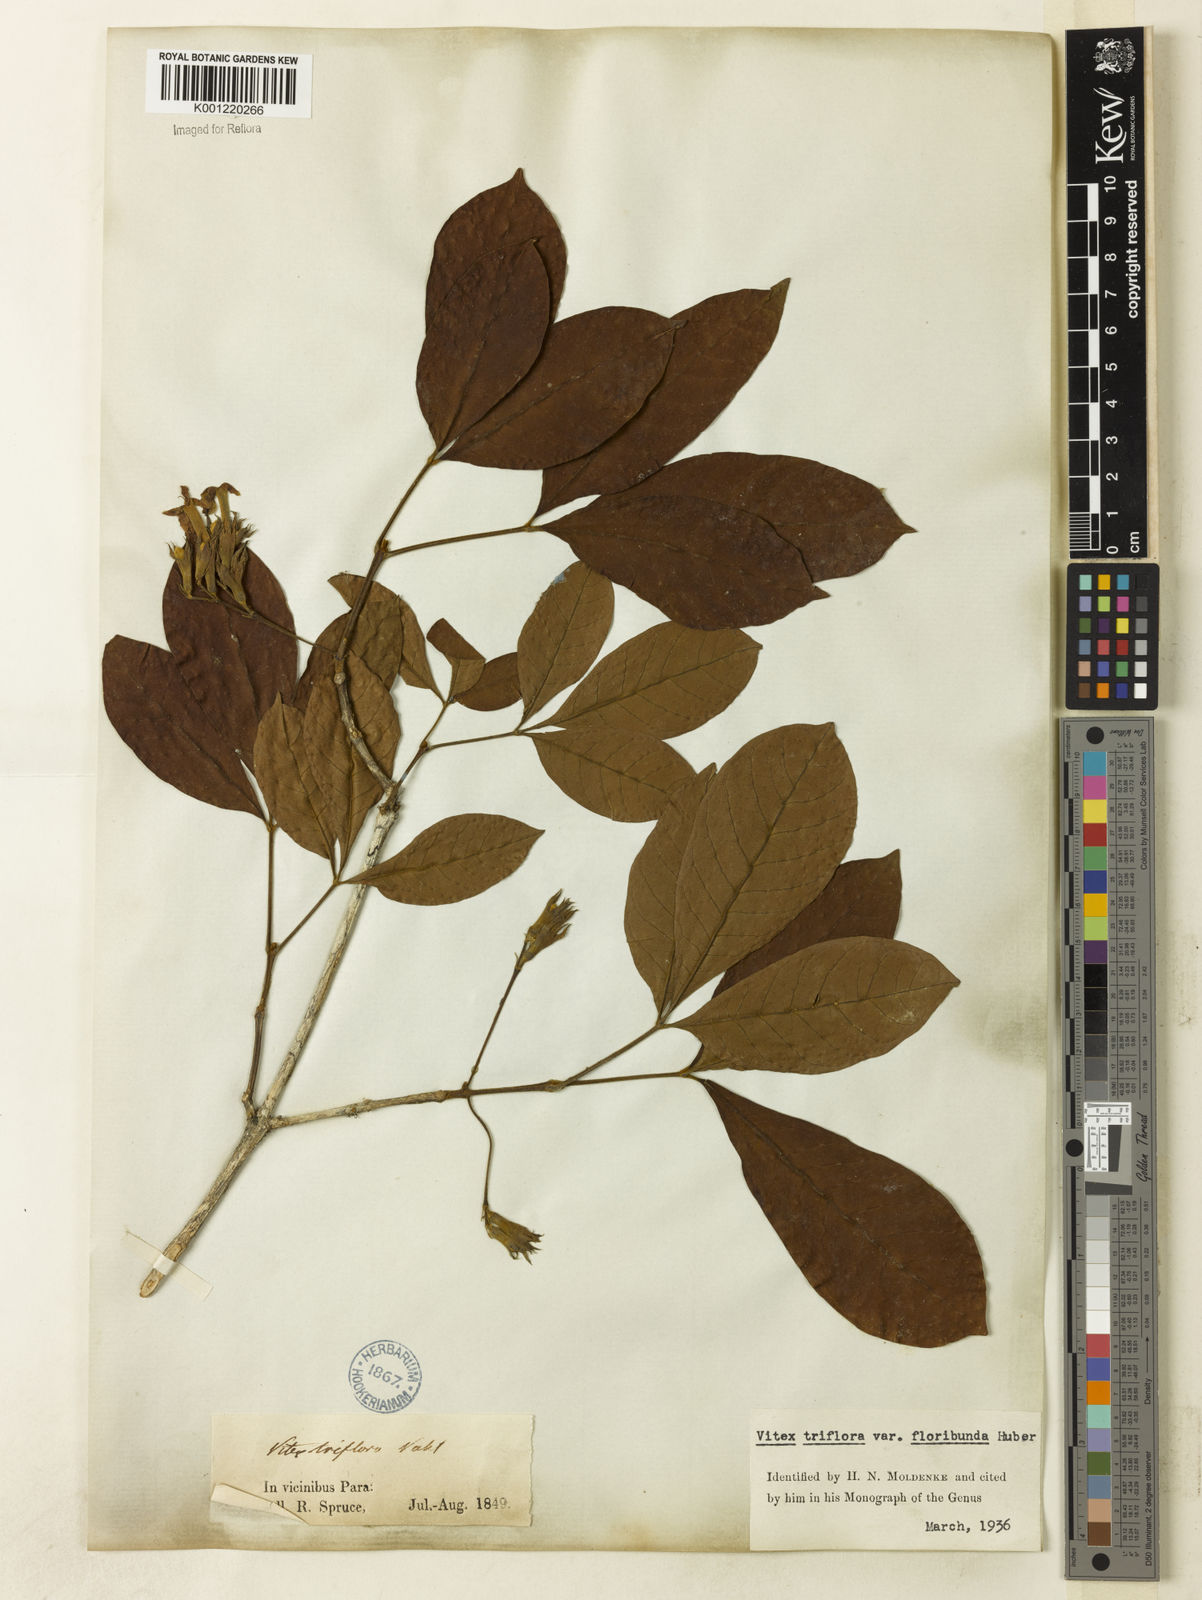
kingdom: Plantae
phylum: Tracheophyta
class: Magnoliopsida
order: Lamiales
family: Lamiaceae
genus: Vitex
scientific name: Vitex triflora
